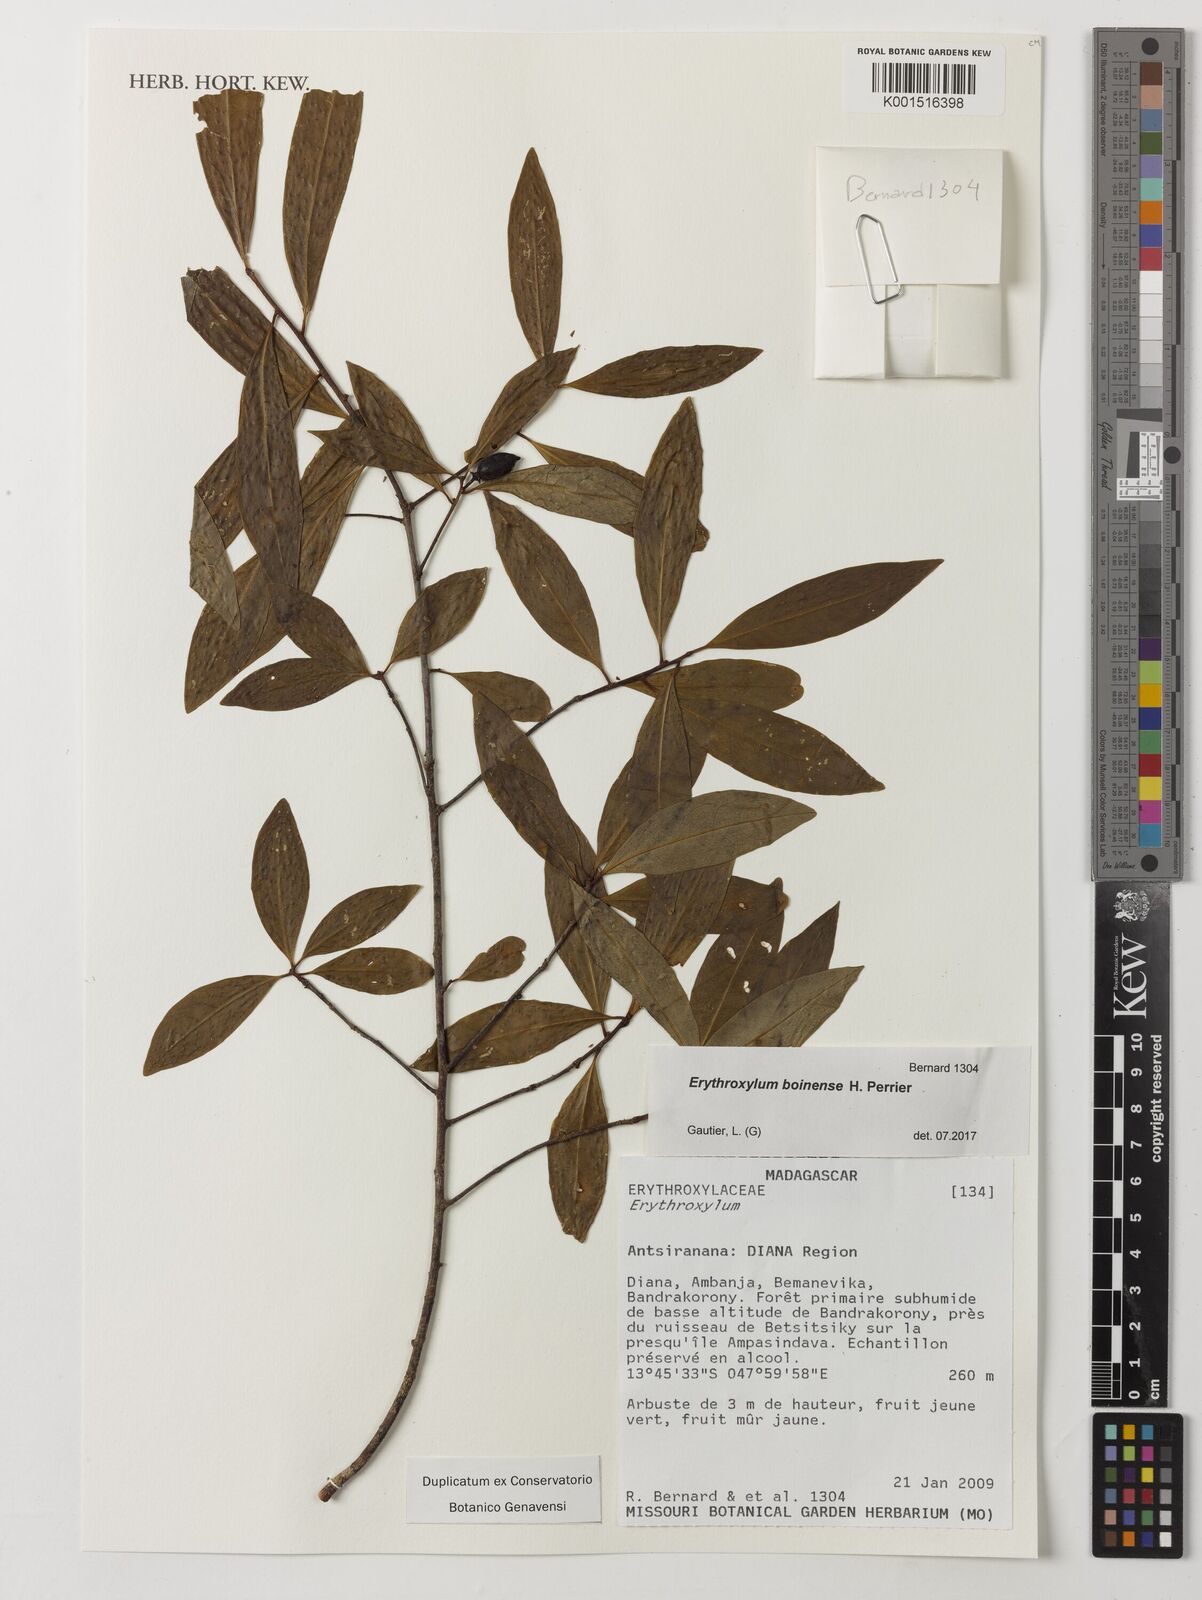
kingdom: Plantae
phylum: Tracheophyta
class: Magnoliopsida
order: Malpighiales
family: Erythroxylaceae
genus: Erythroxylum
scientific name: Erythroxylum boinense
